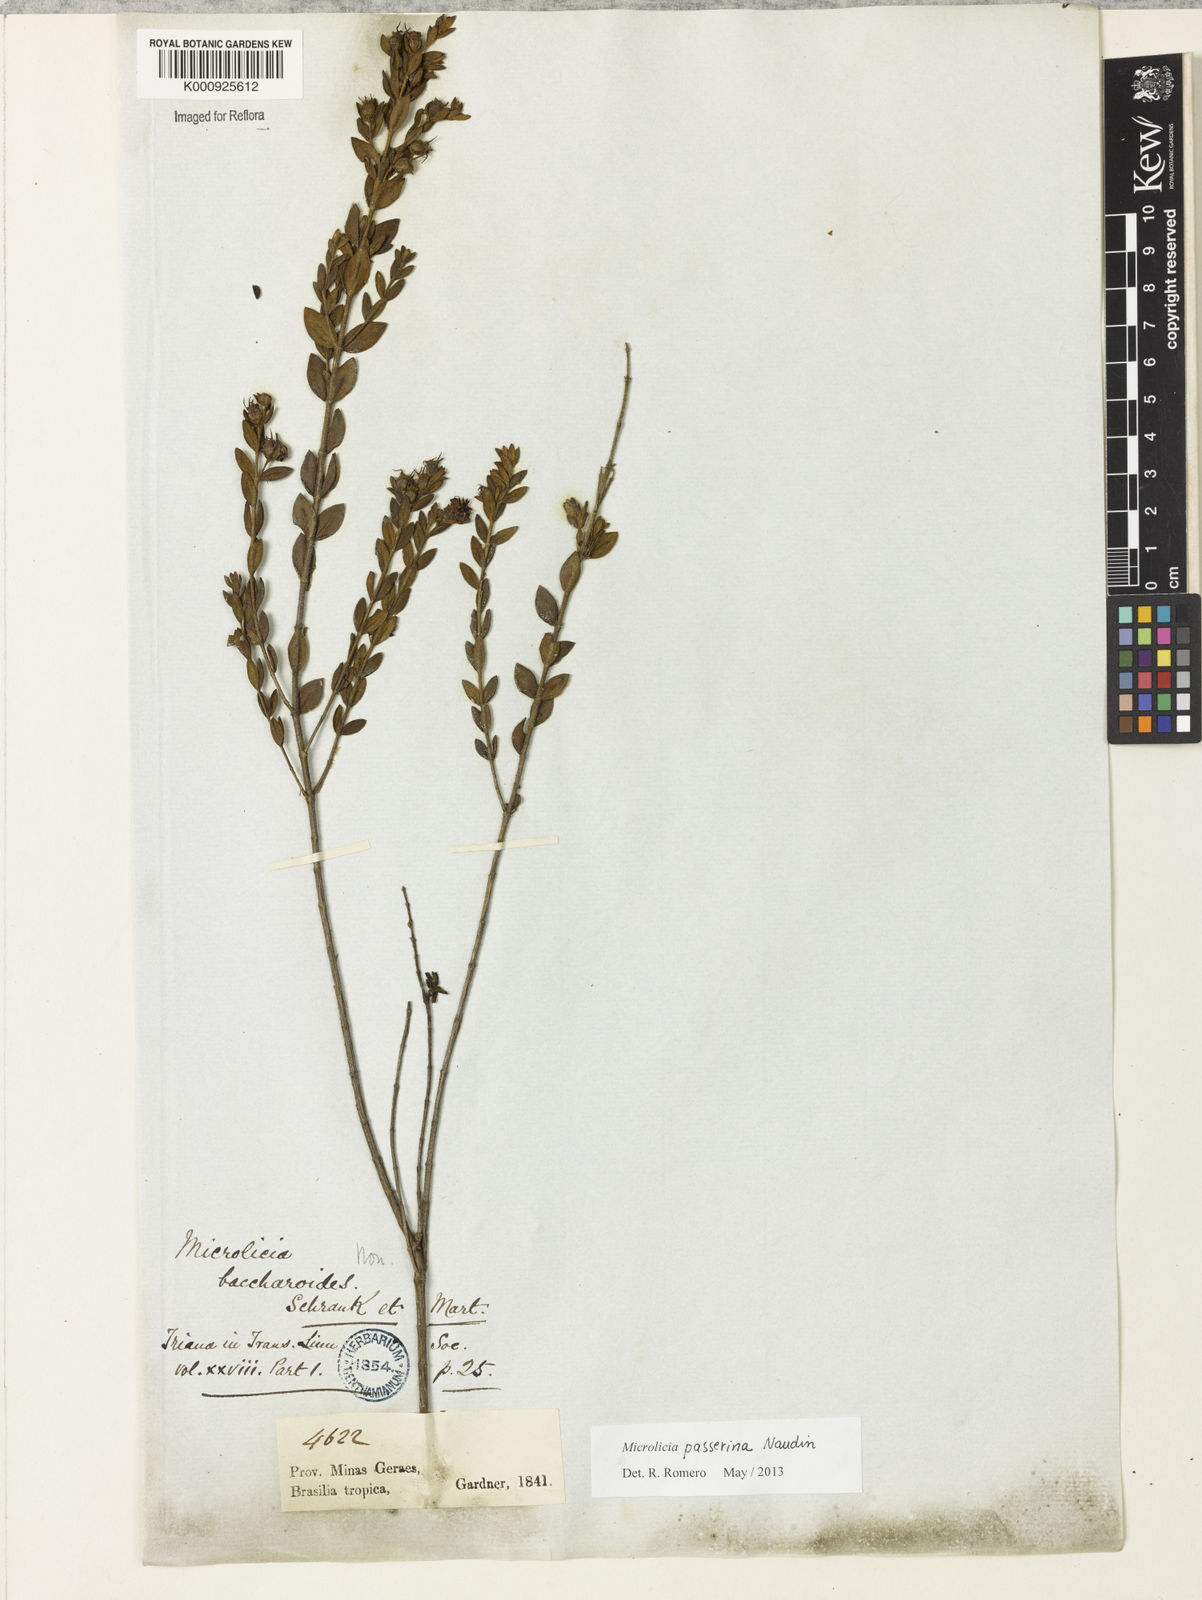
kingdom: Plantae
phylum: Tracheophyta
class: Magnoliopsida
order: Myrtales
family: Melastomataceae
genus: Microlicia
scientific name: Microlicia passerina
